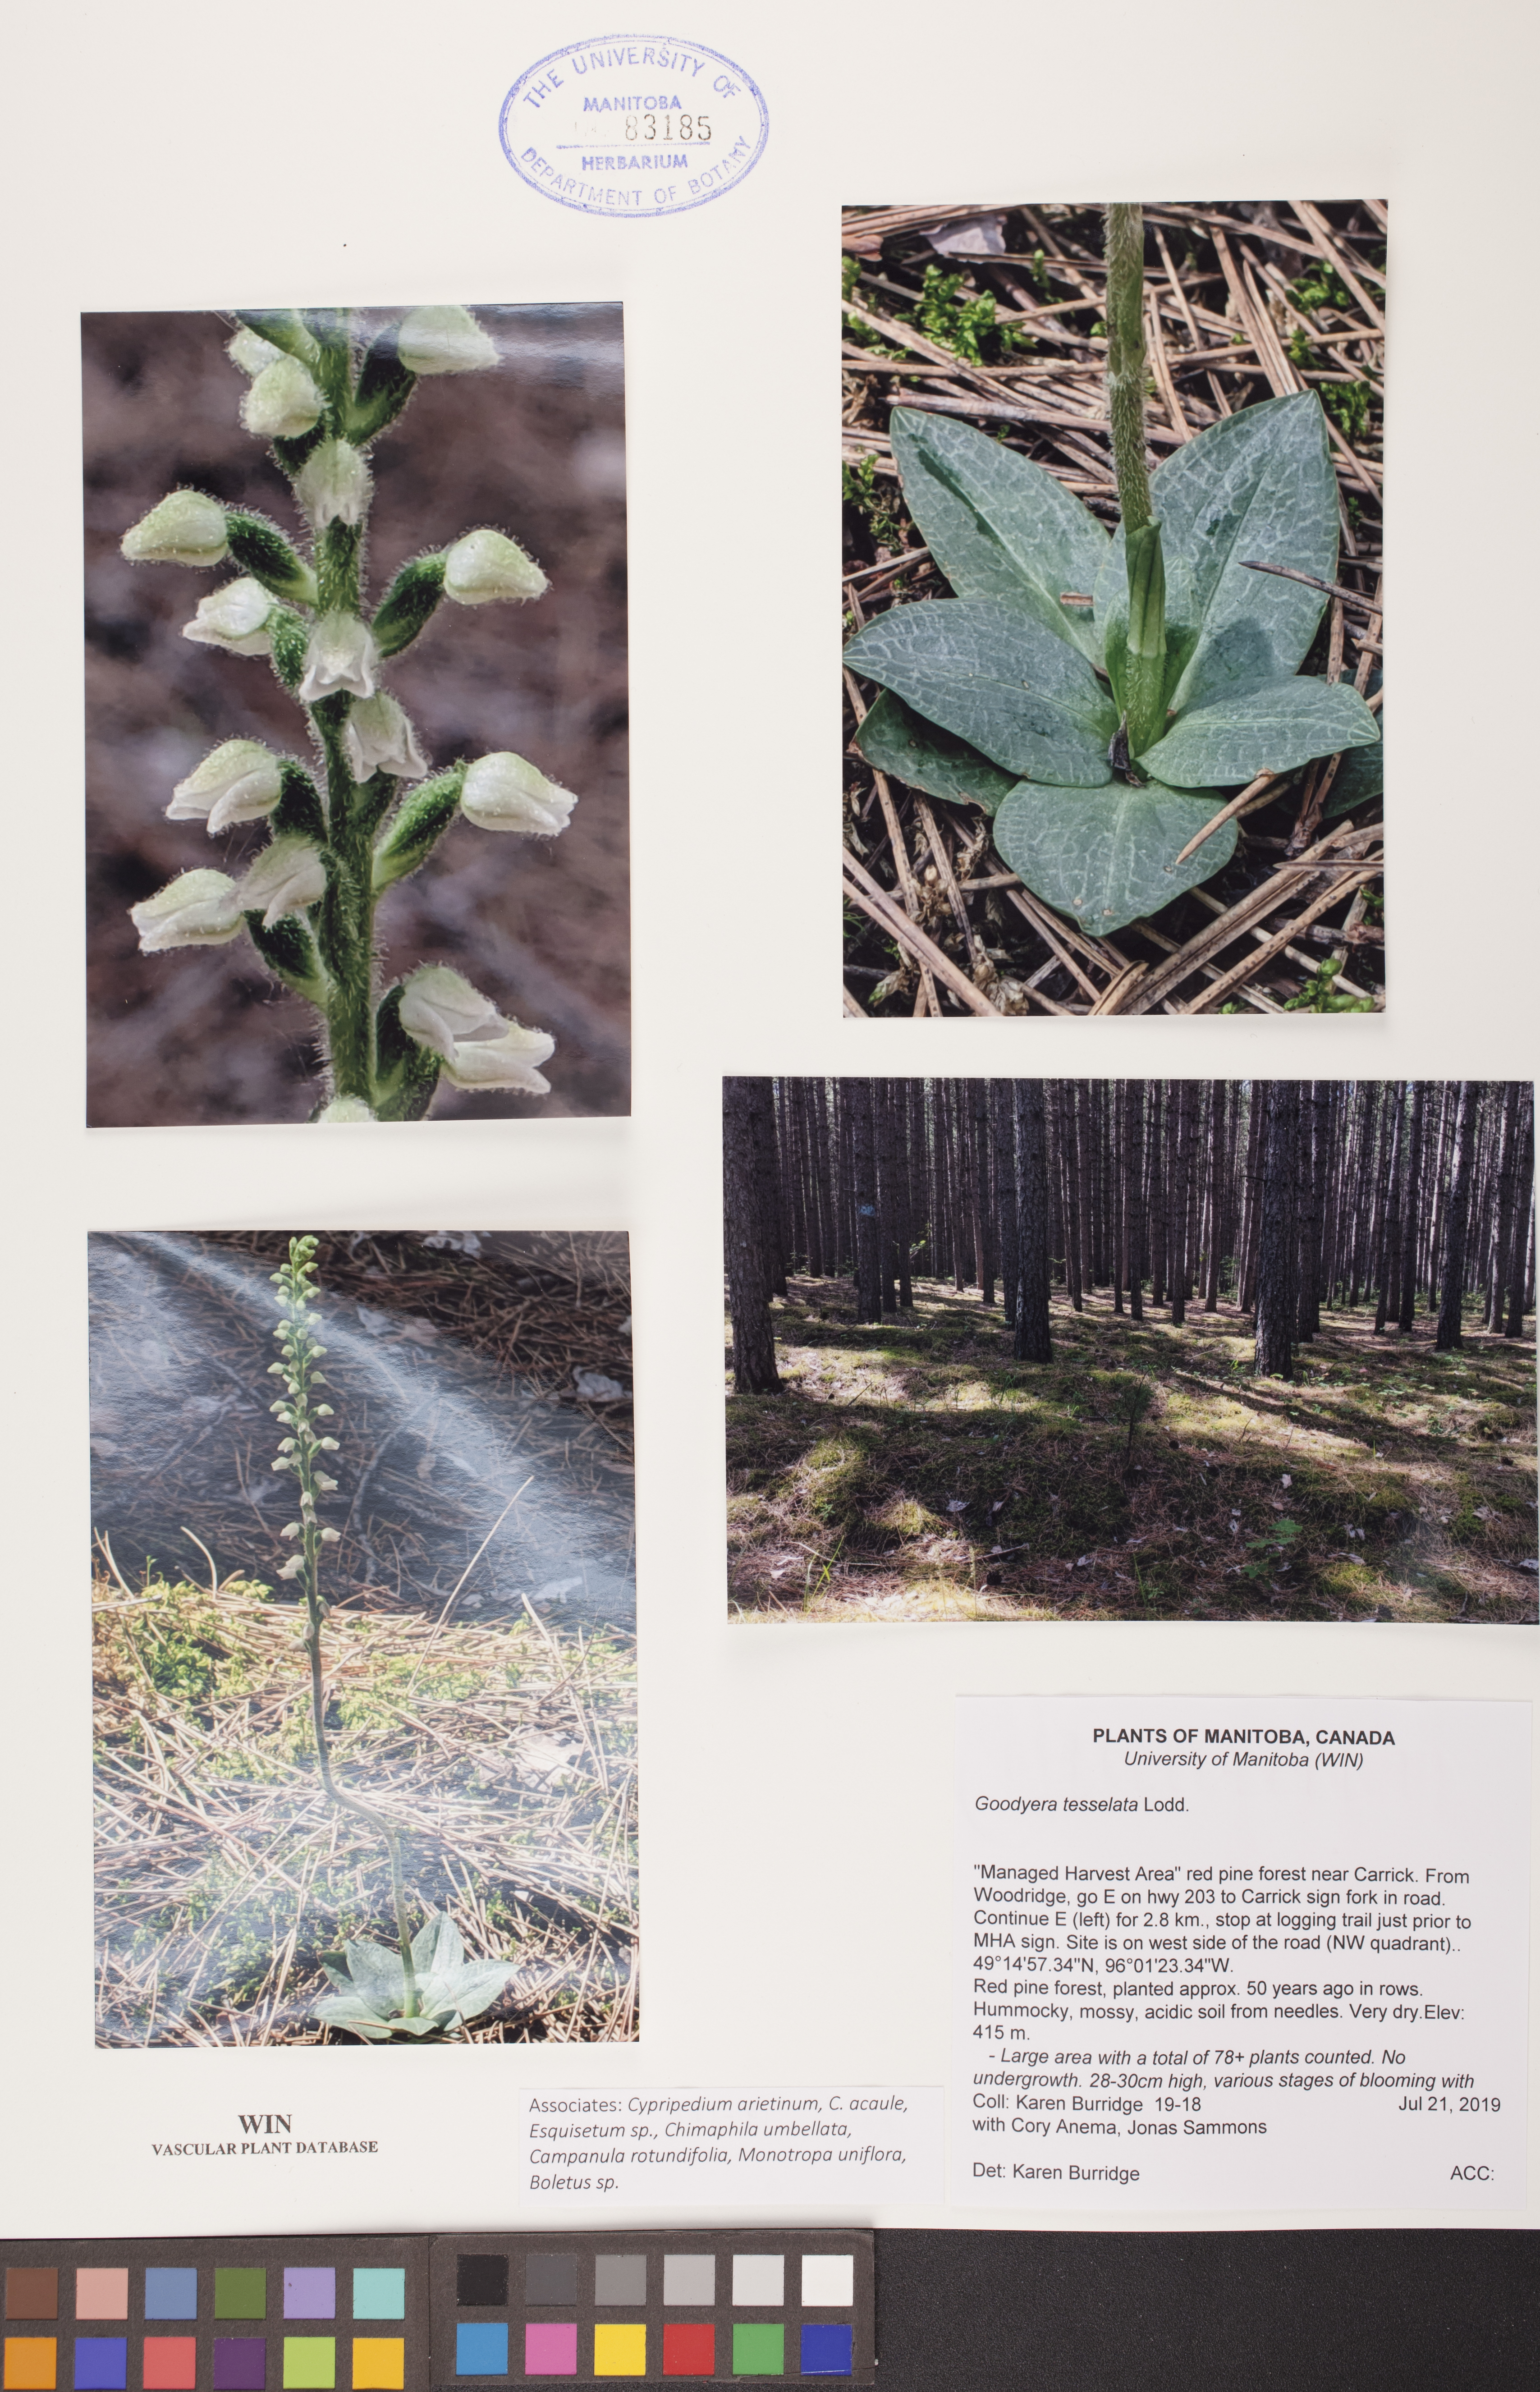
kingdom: Plantae
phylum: Tracheophyta
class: Liliopsida
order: Asparagales
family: Orchidaceae
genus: Goodyera
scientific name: Goodyera tesselata
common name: Checkered rattlesnake-plantain
